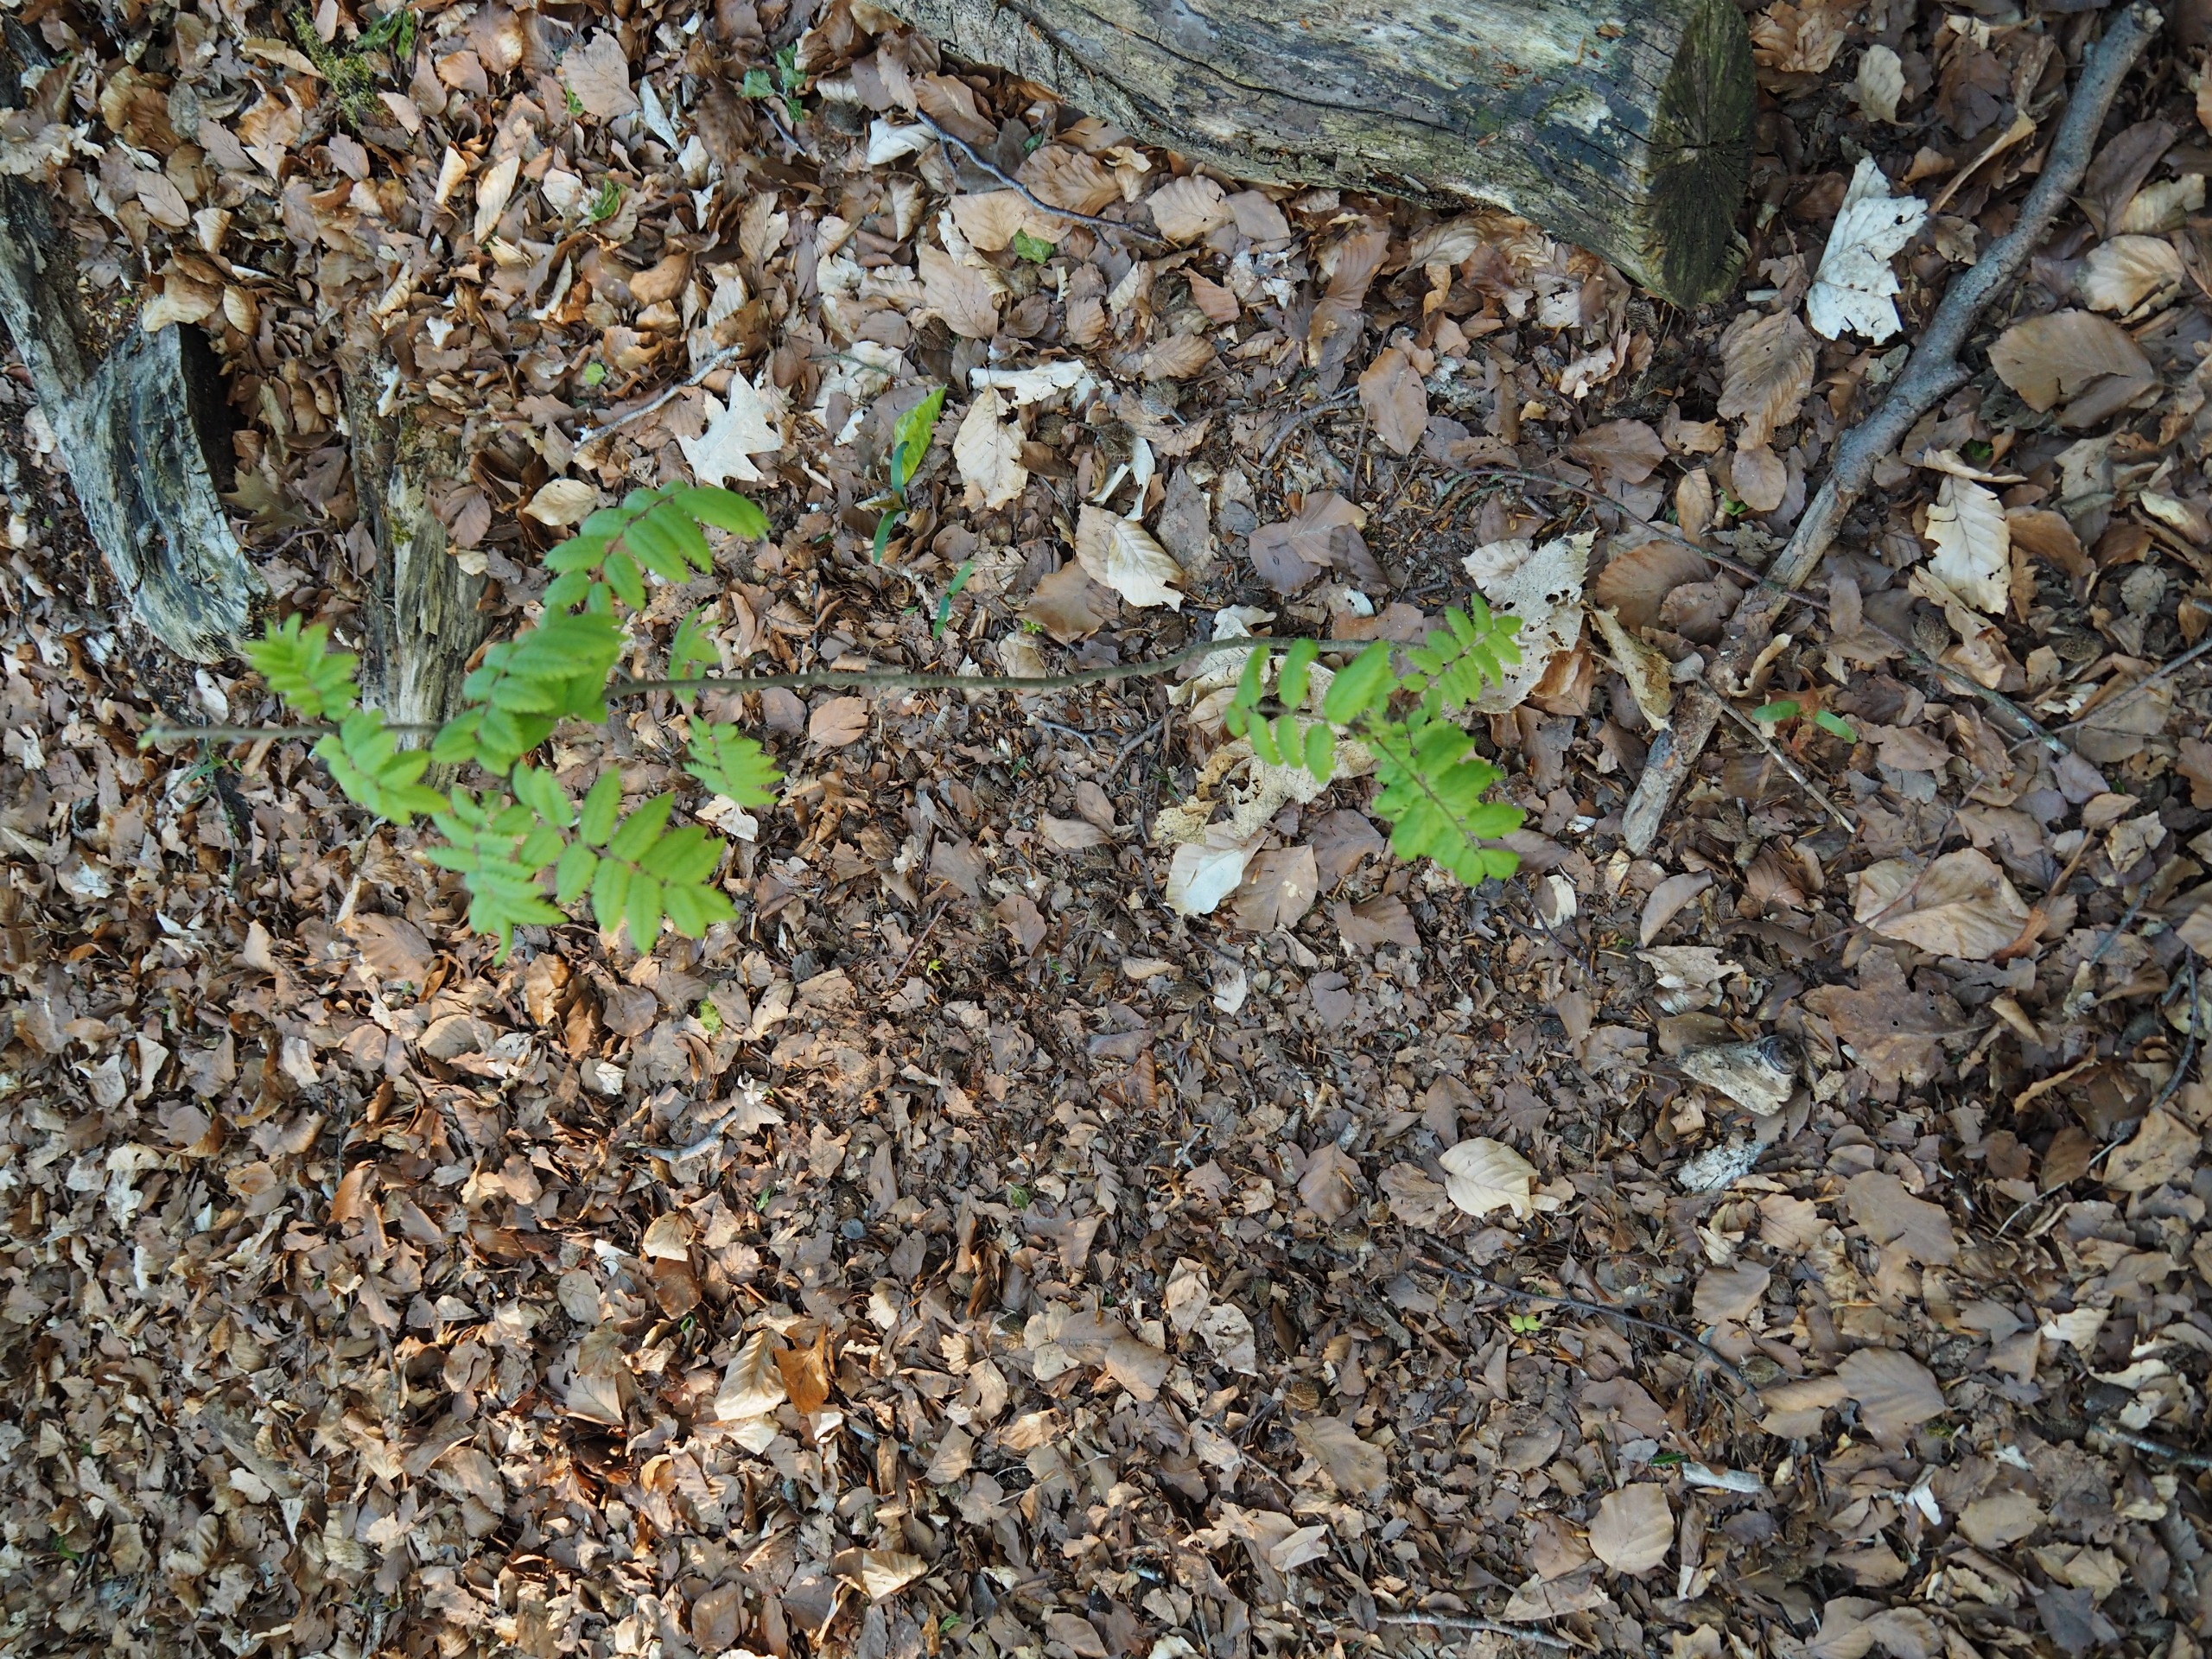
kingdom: Plantae
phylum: Tracheophyta
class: Magnoliopsida
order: Rosales
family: Rosaceae
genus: Sorbus
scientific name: Sorbus aucuparia
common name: Almindelig røn
